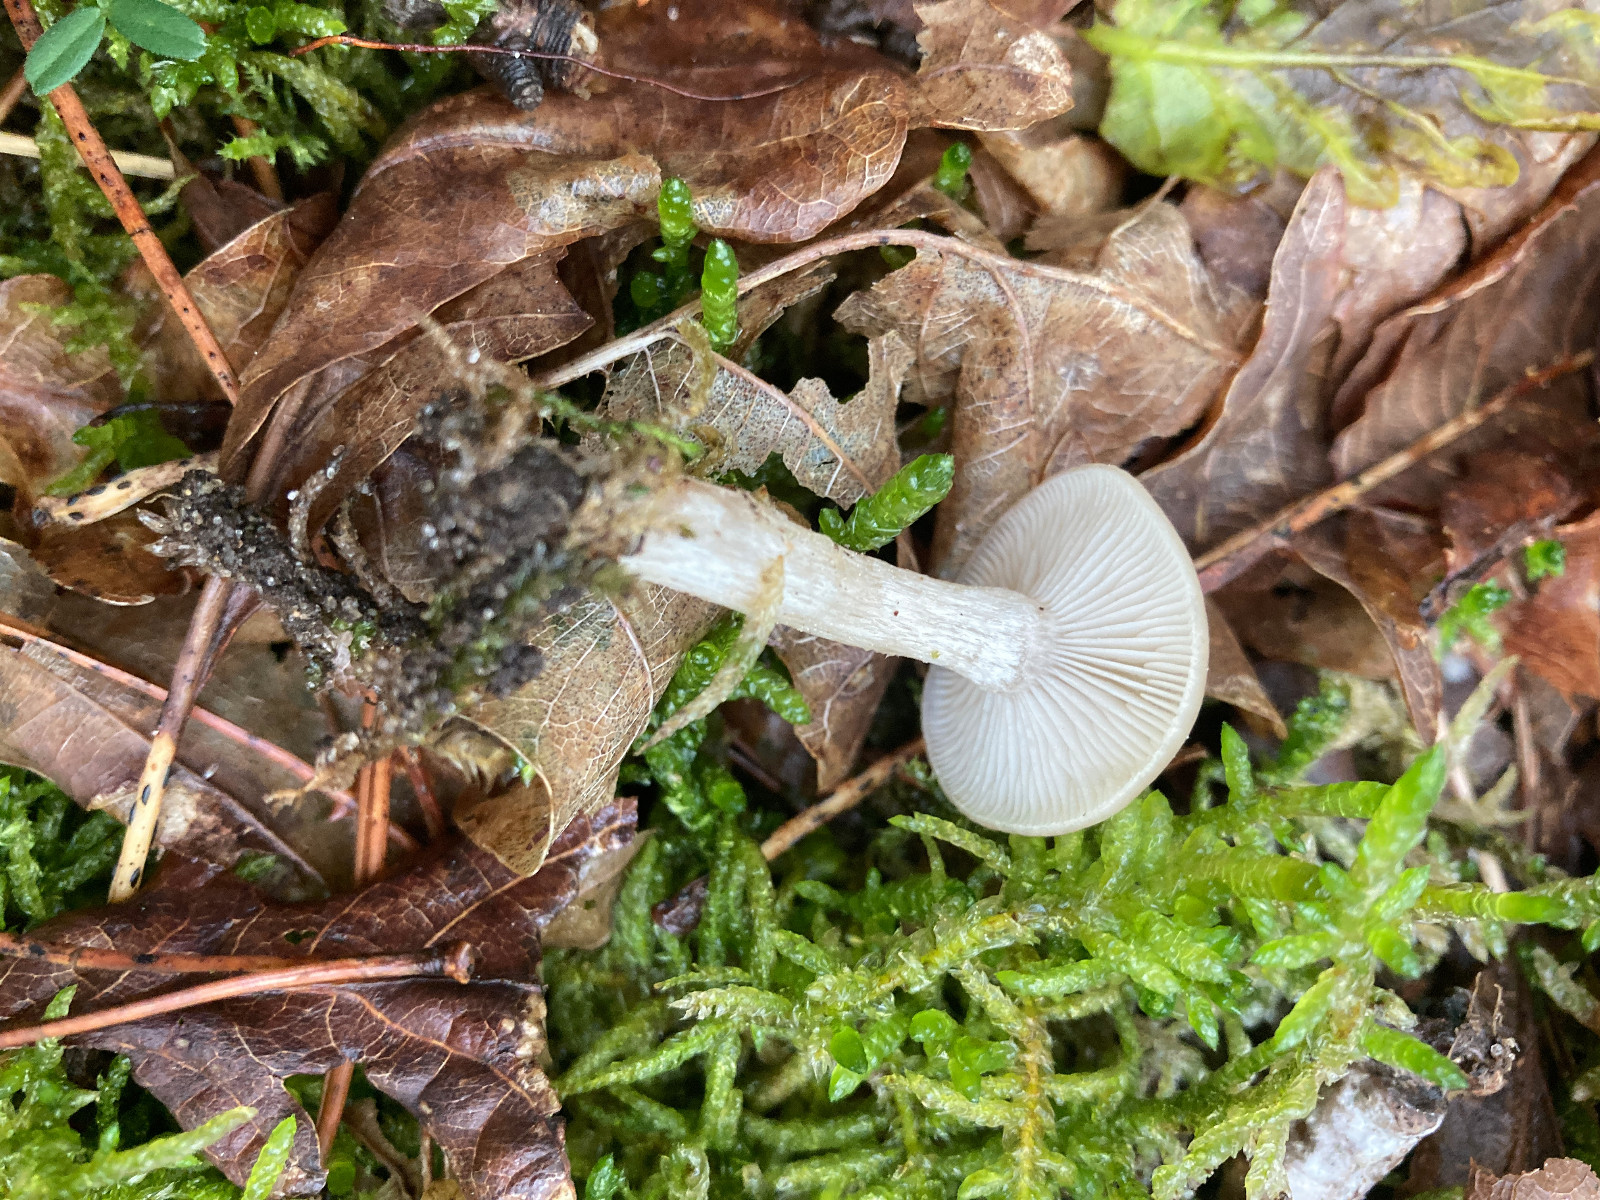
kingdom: Fungi
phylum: Basidiomycota
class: Agaricomycetes
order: Agaricales
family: Tricholomataceae
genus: Clitocybe
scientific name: Clitocybe fragrans
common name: vellugtende tragthat
